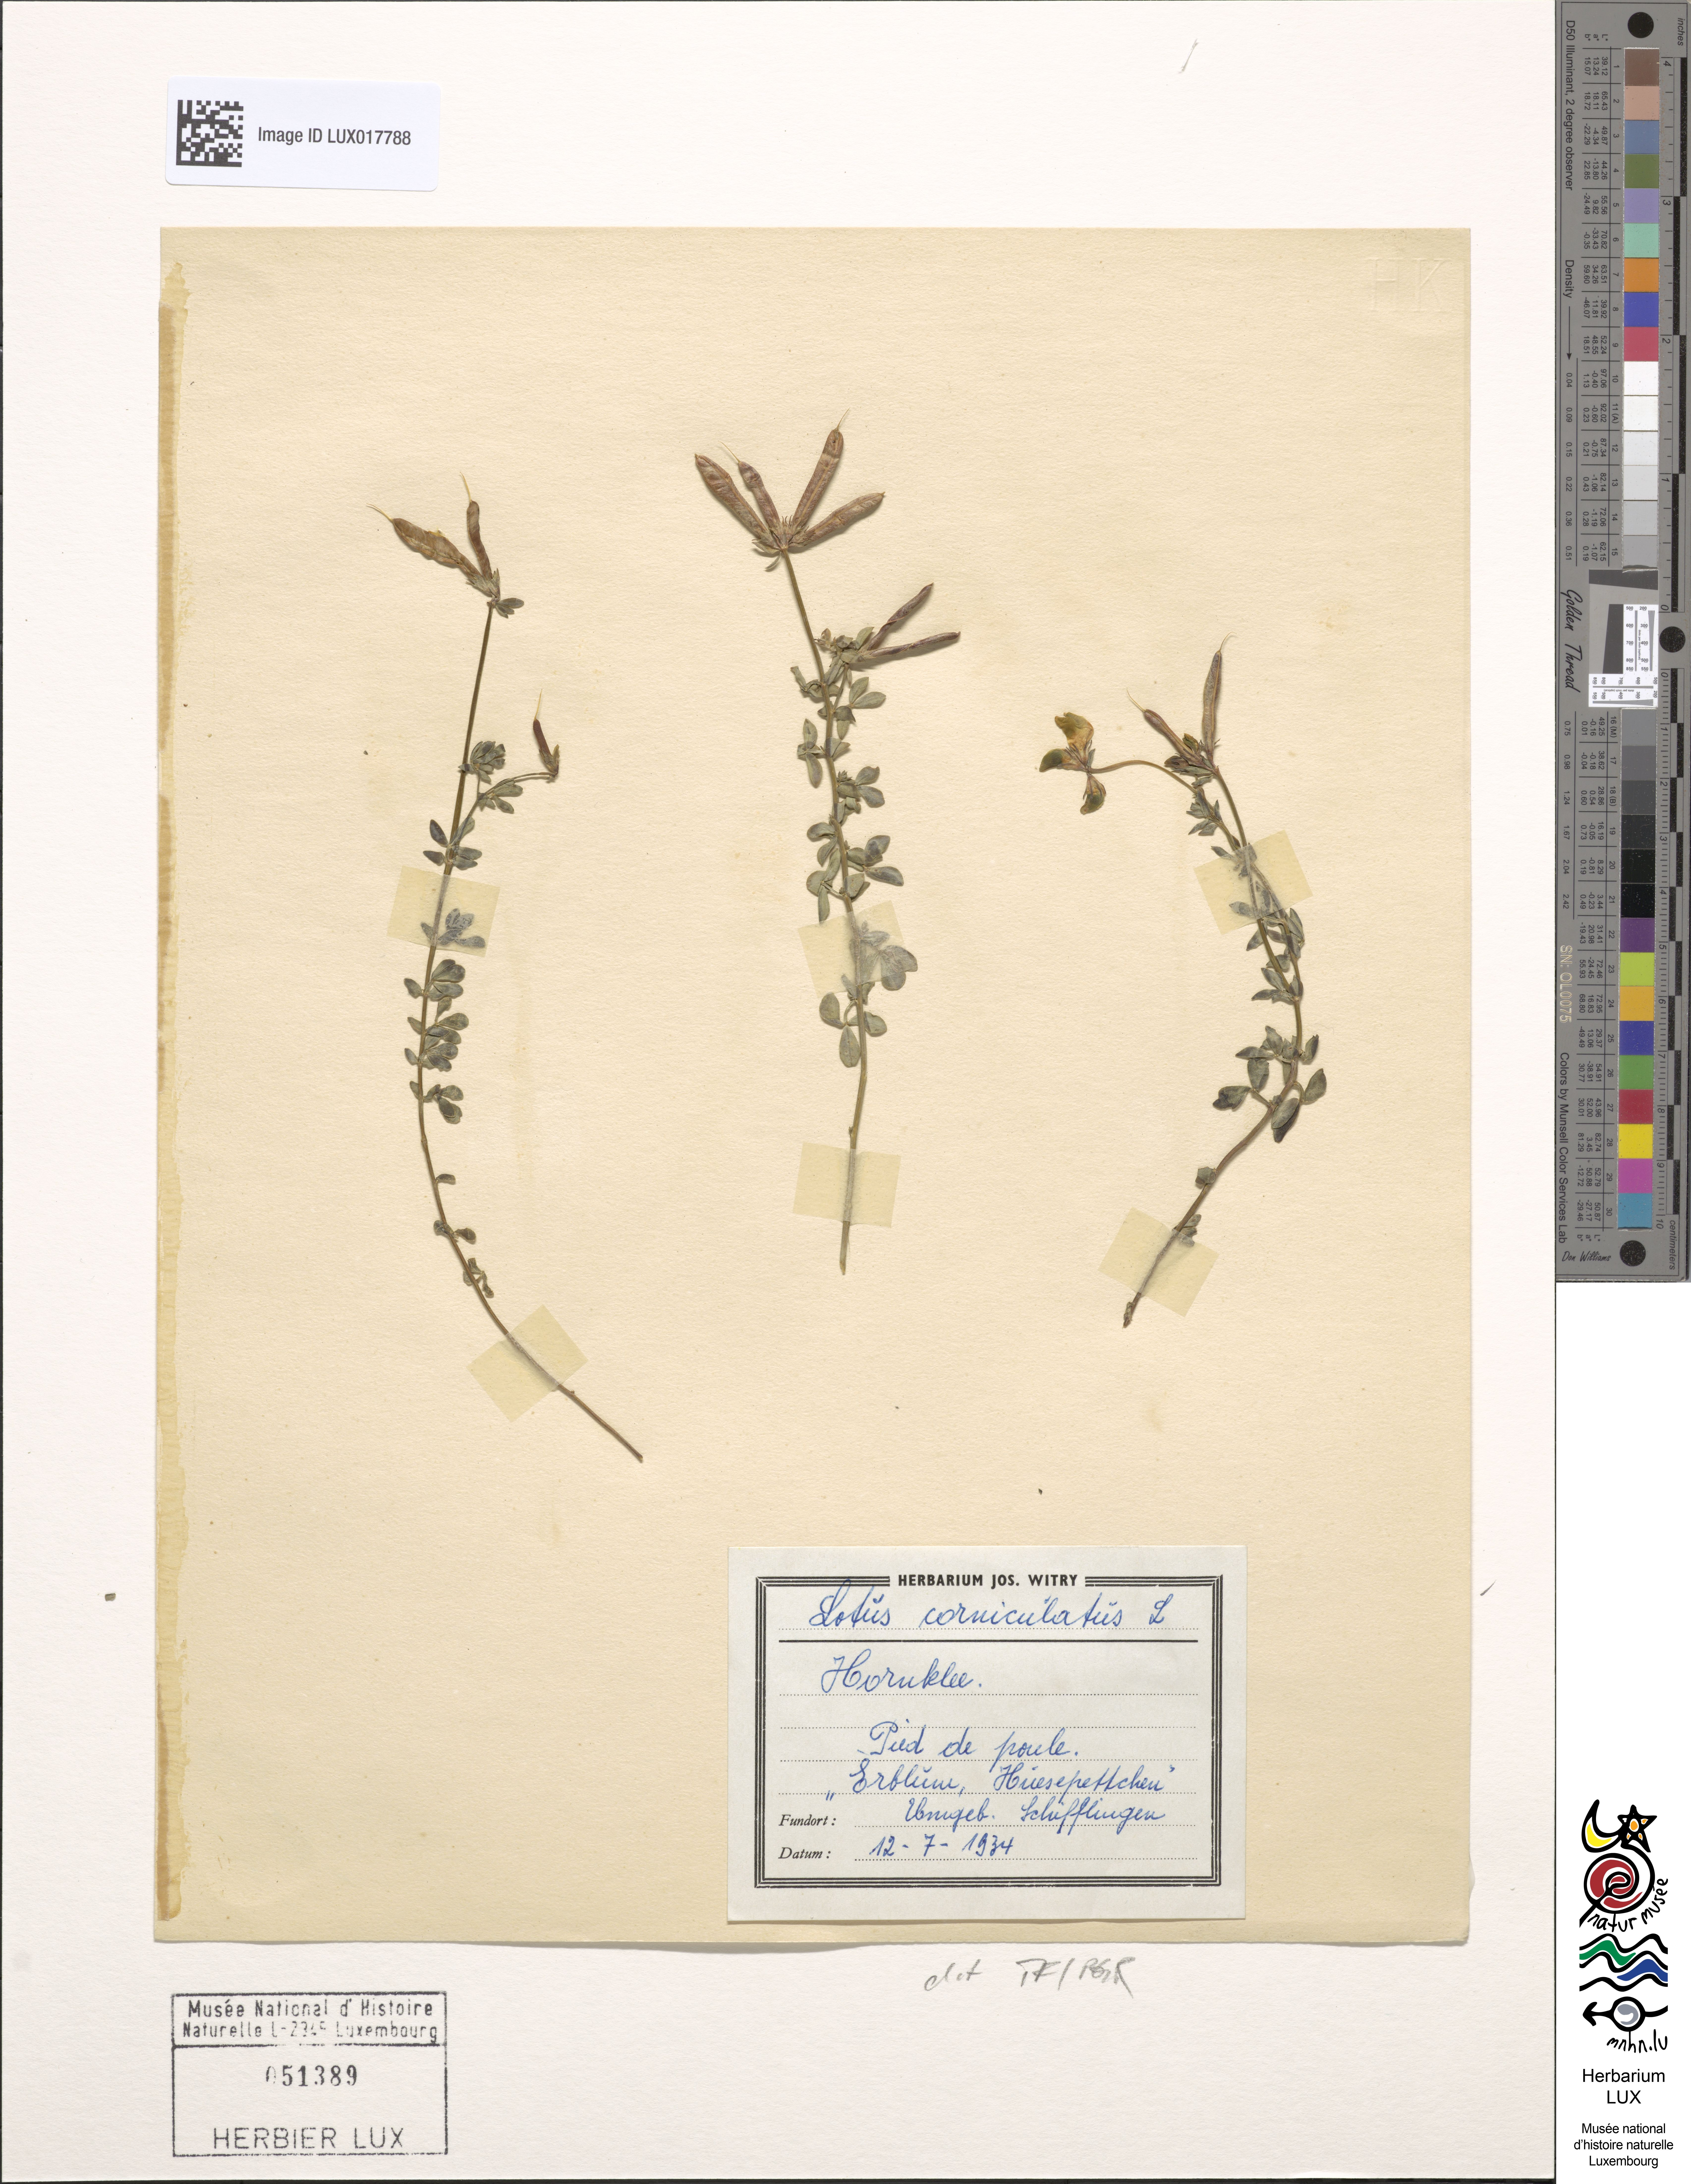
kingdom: Plantae
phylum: Tracheophyta
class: Magnoliopsida
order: Fabales
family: Fabaceae
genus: Lotus
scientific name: Lotus corniculatus
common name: Common bird's-foot-trefoil
